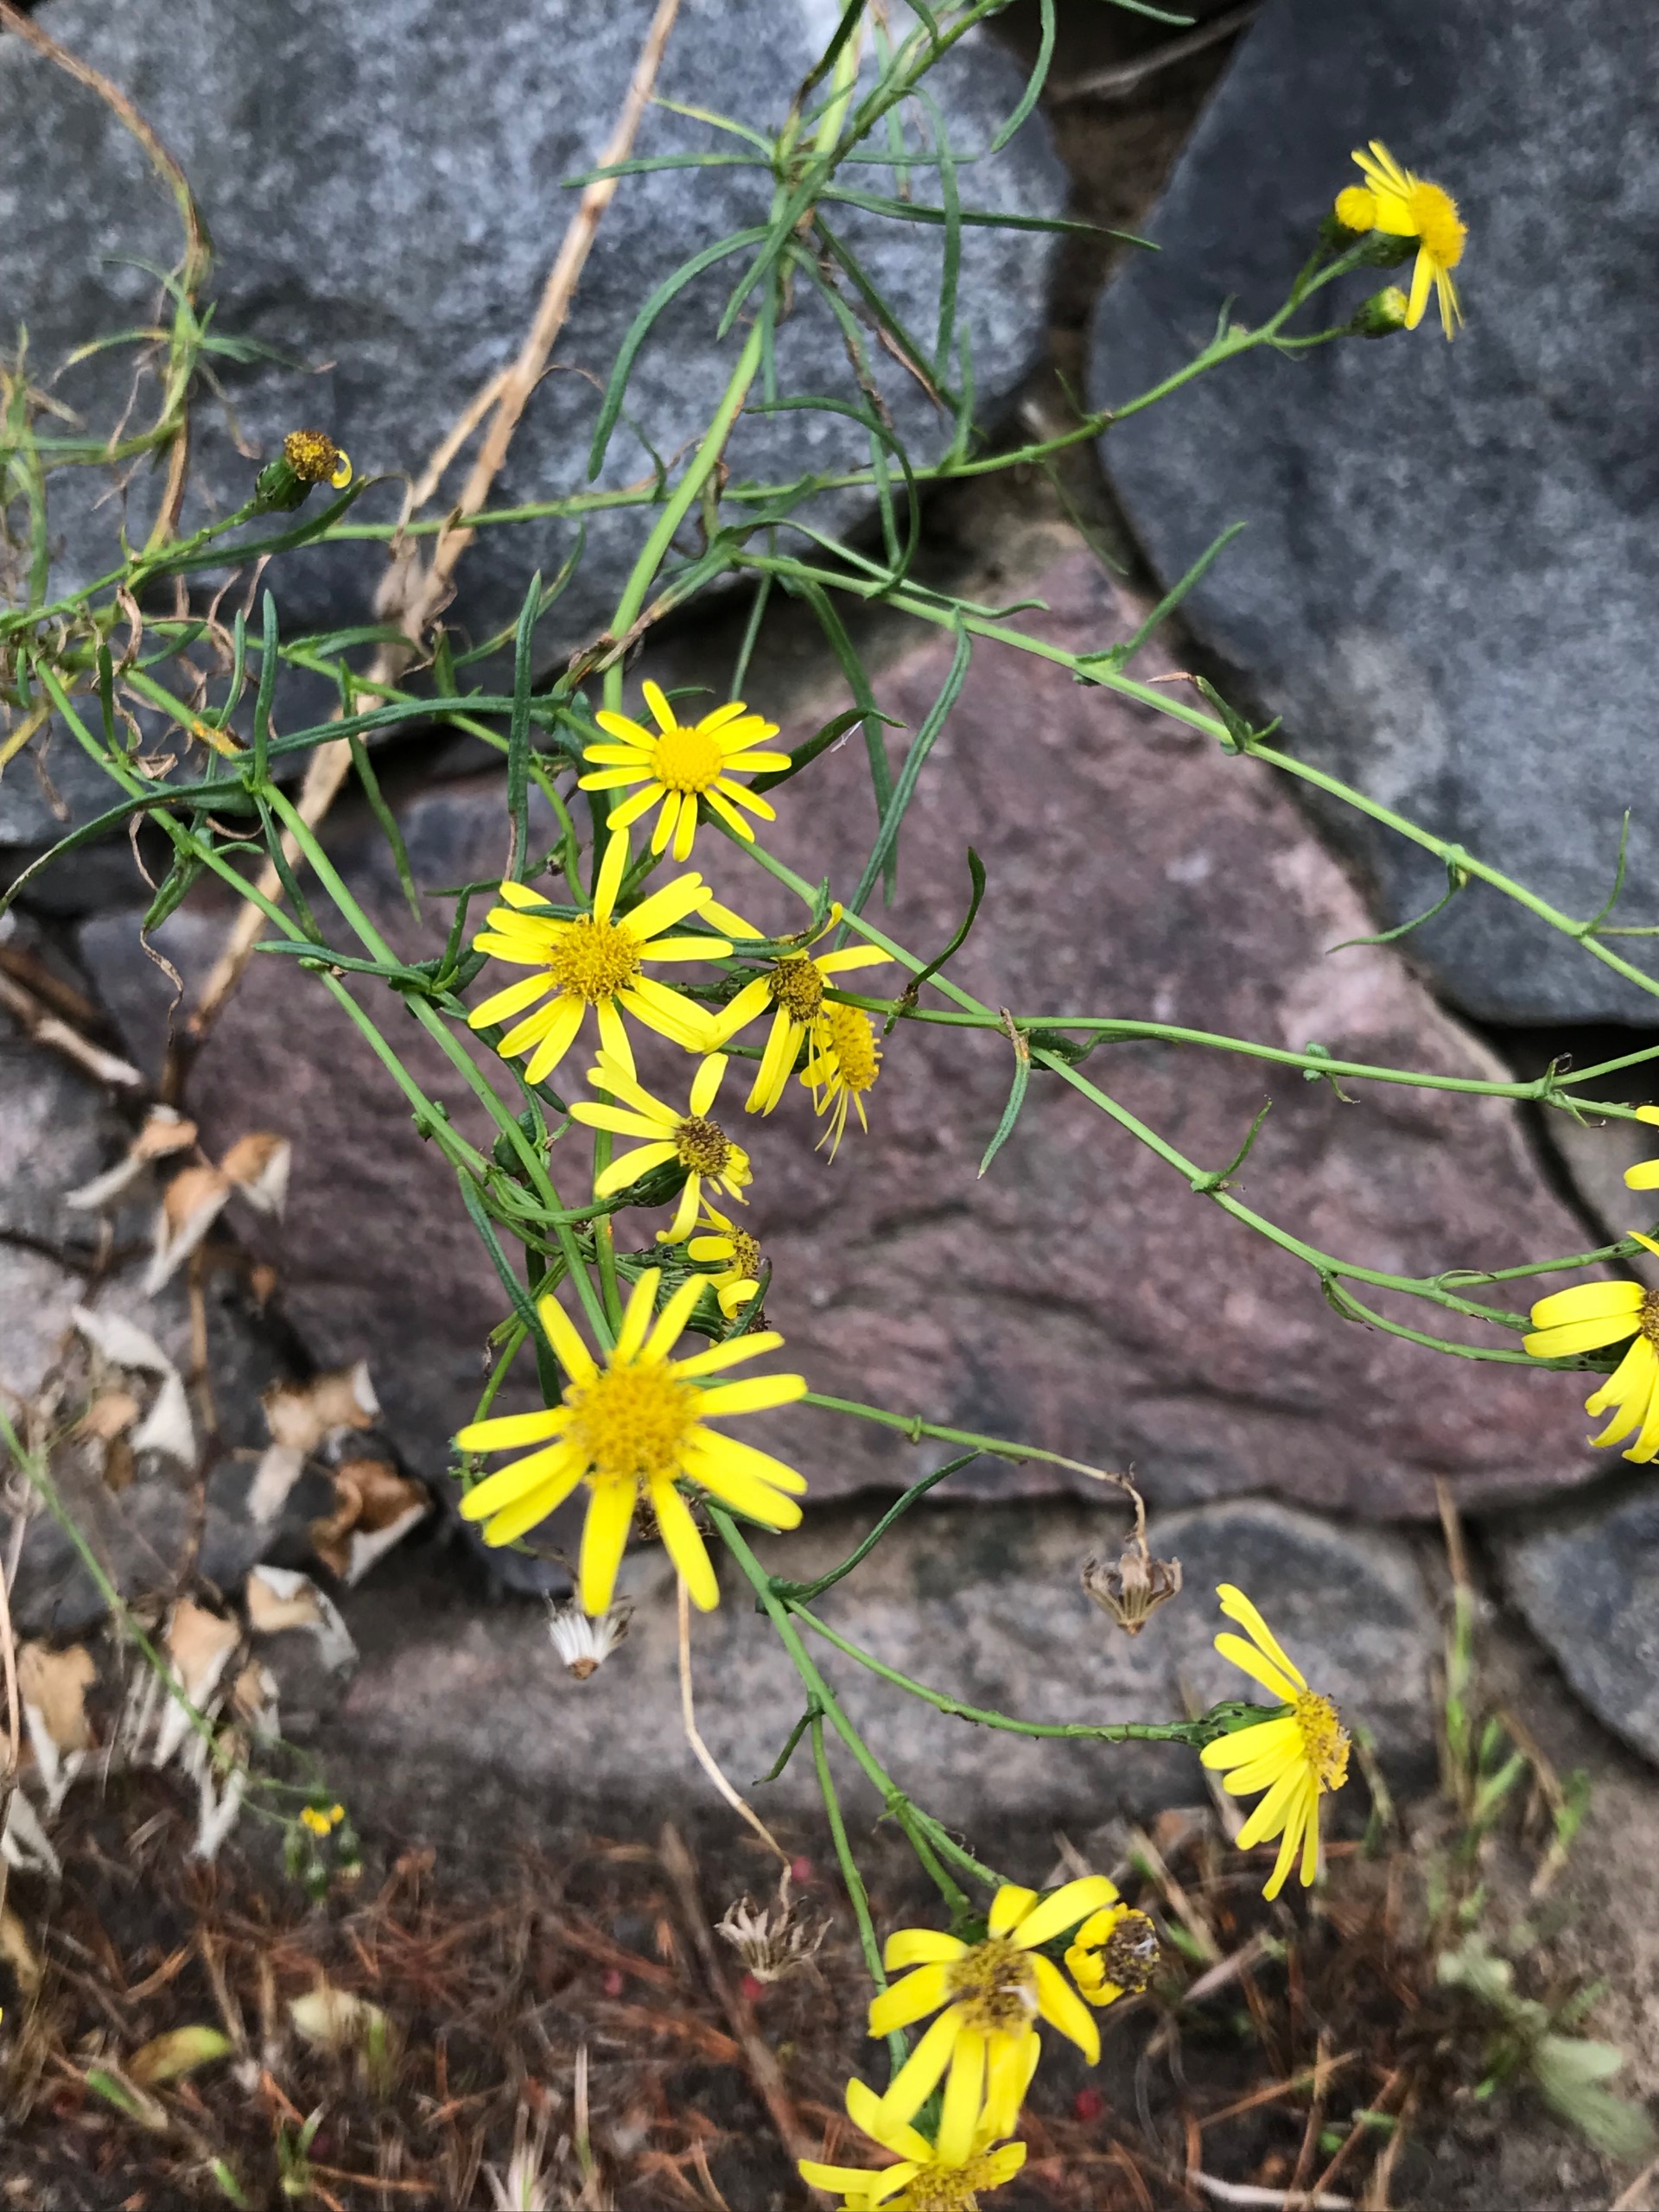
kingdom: Plantae
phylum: Tracheophyta
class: Magnoliopsida
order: Asterales
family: Asteraceae
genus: Senecio
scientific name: Senecio inaequidens
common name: Smalbladet brandbæger
